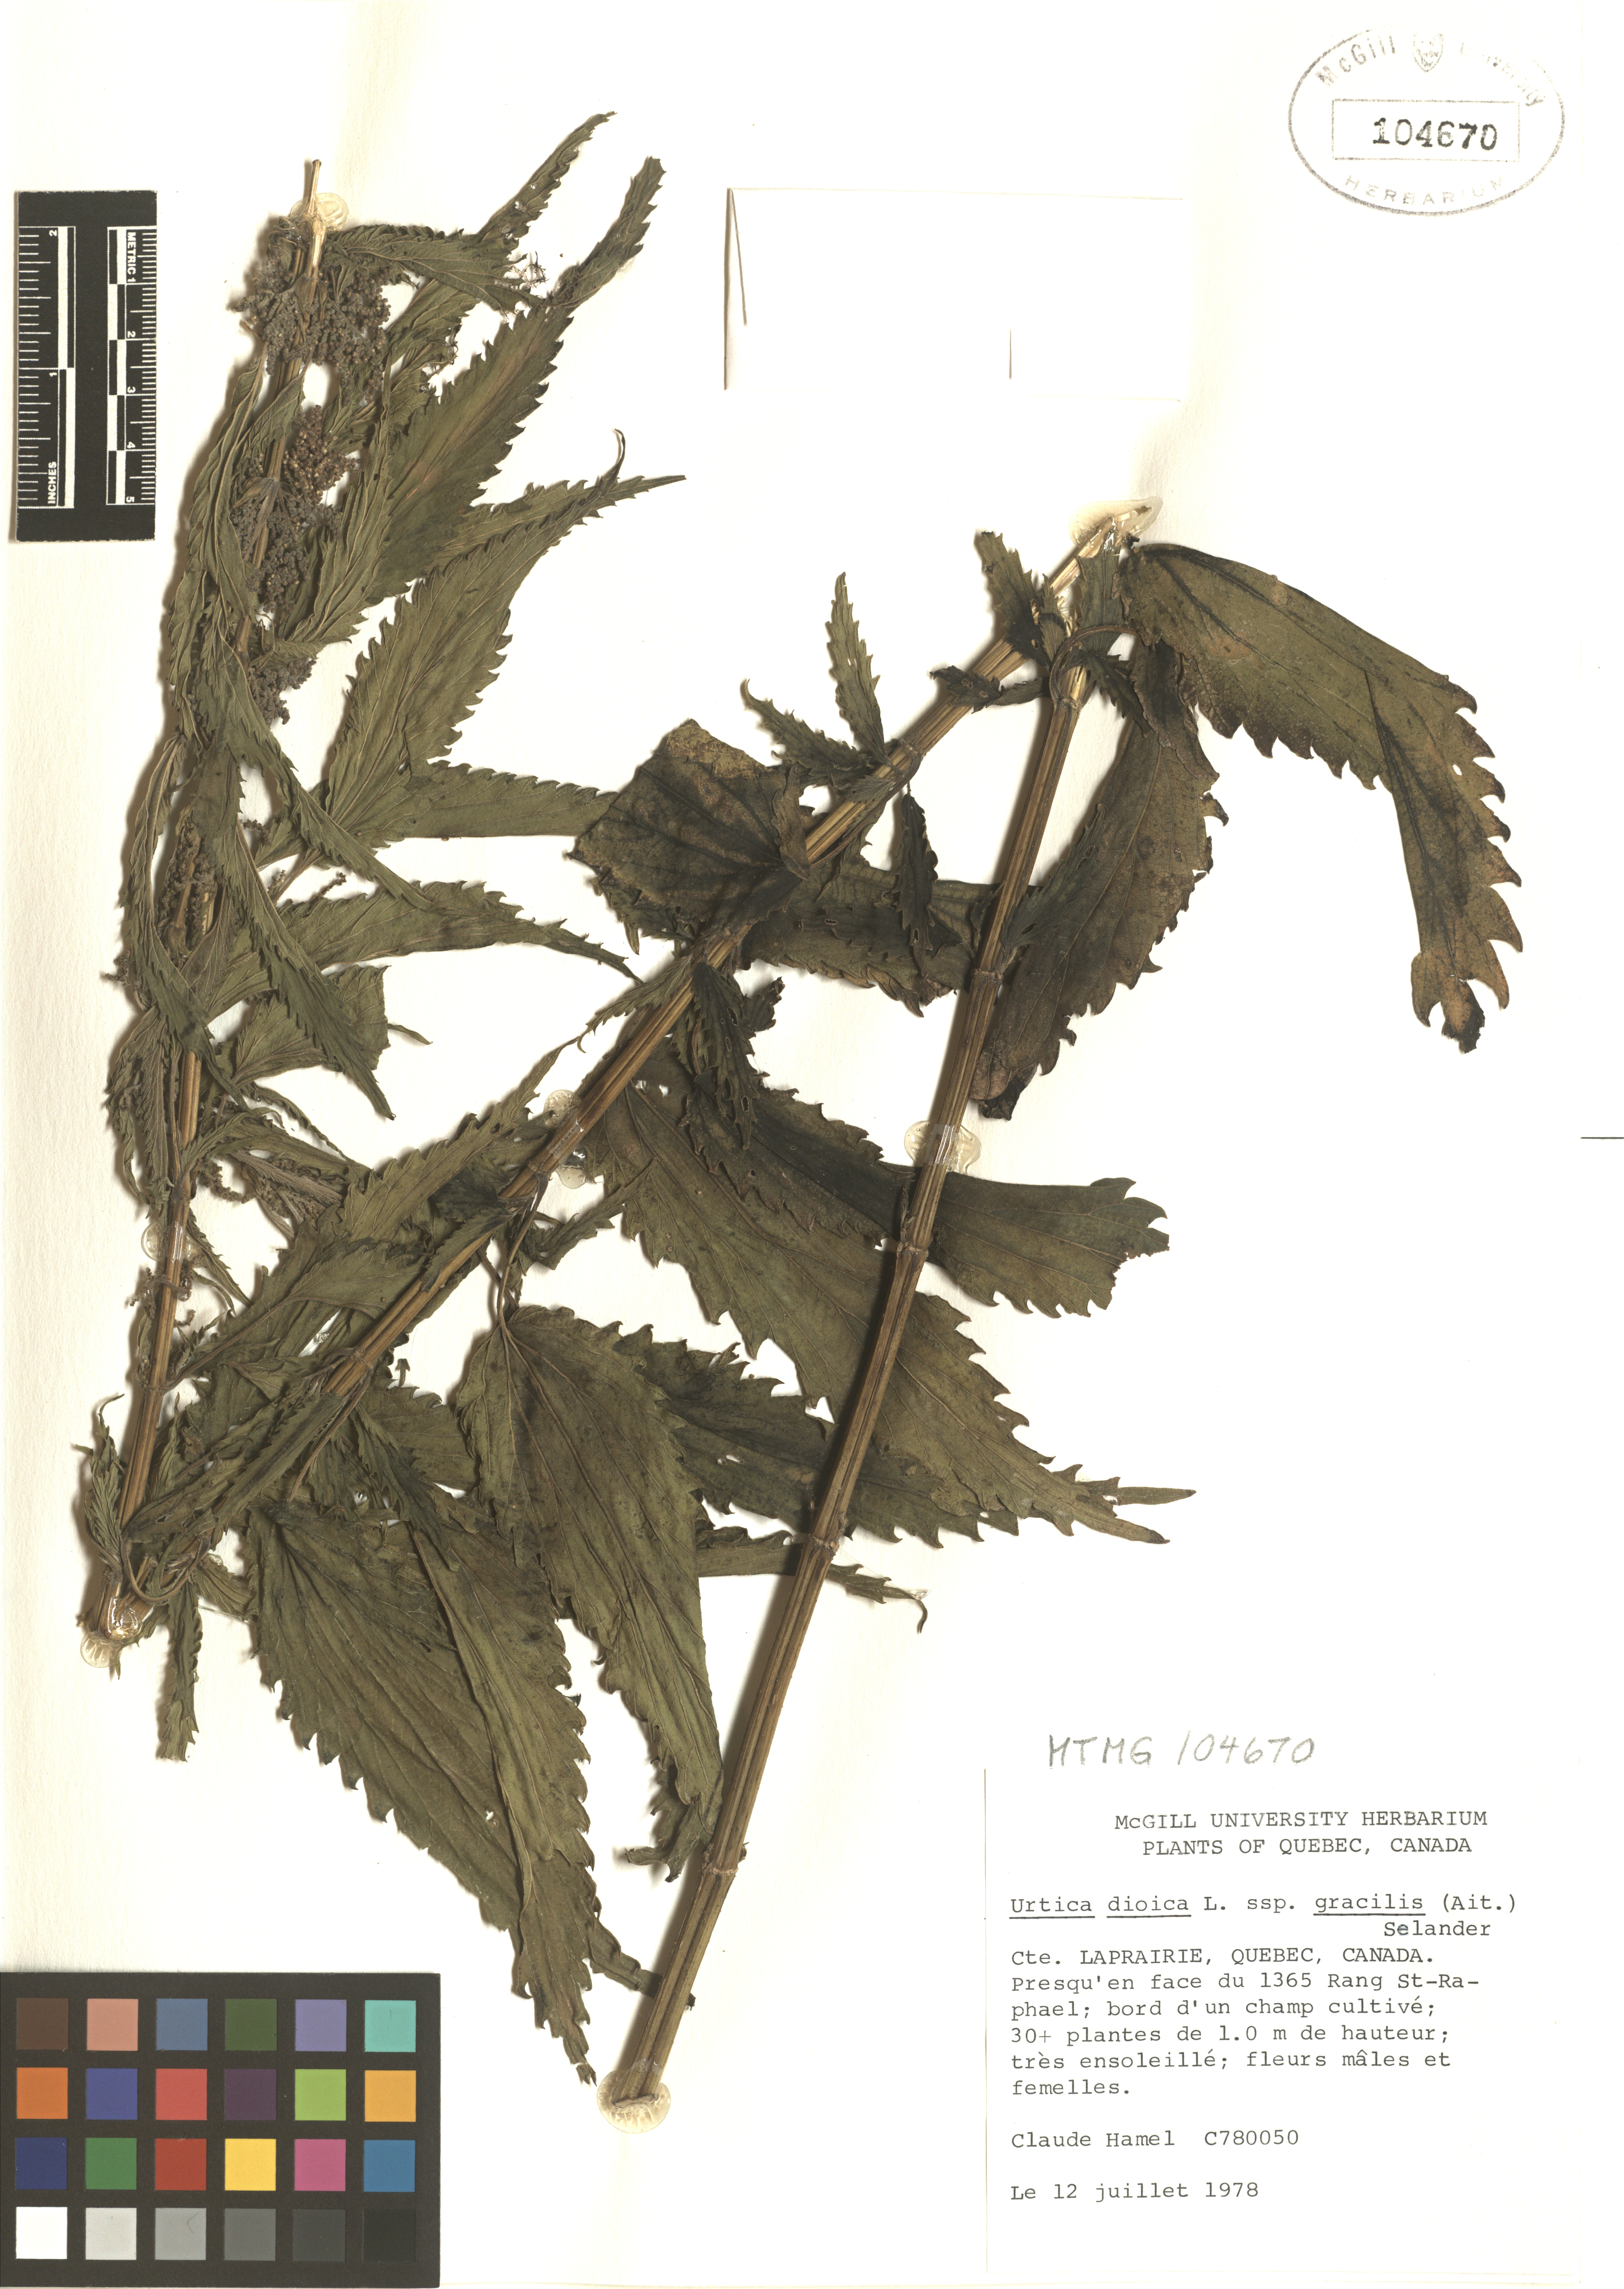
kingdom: Plantae
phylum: Tracheophyta
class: Magnoliopsida
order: Rosales
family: Urticaceae
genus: Urtica
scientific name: Urtica gracilis
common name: Slender stinging nettle
